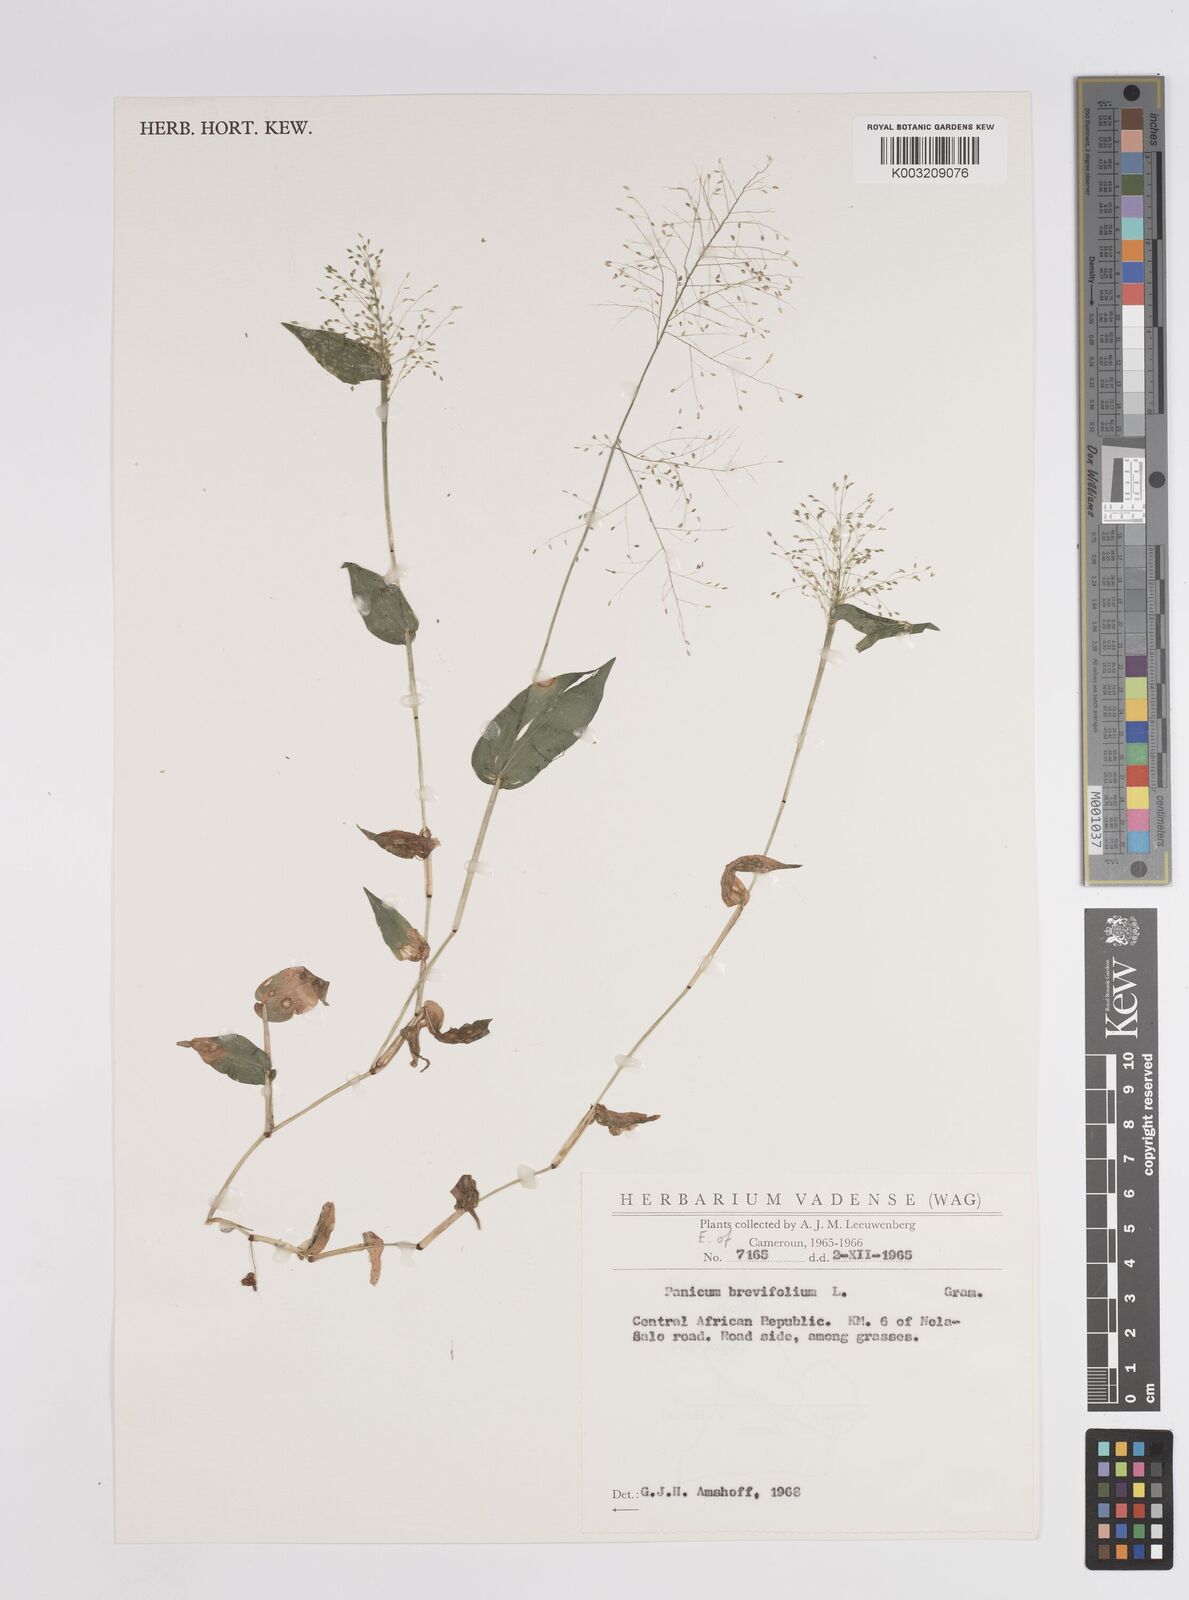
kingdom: Plantae
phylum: Tracheophyta
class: Liliopsida
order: Poales
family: Poaceae
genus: Panicum
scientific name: Panicum brevifolium
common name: Shortleaf panic grass
